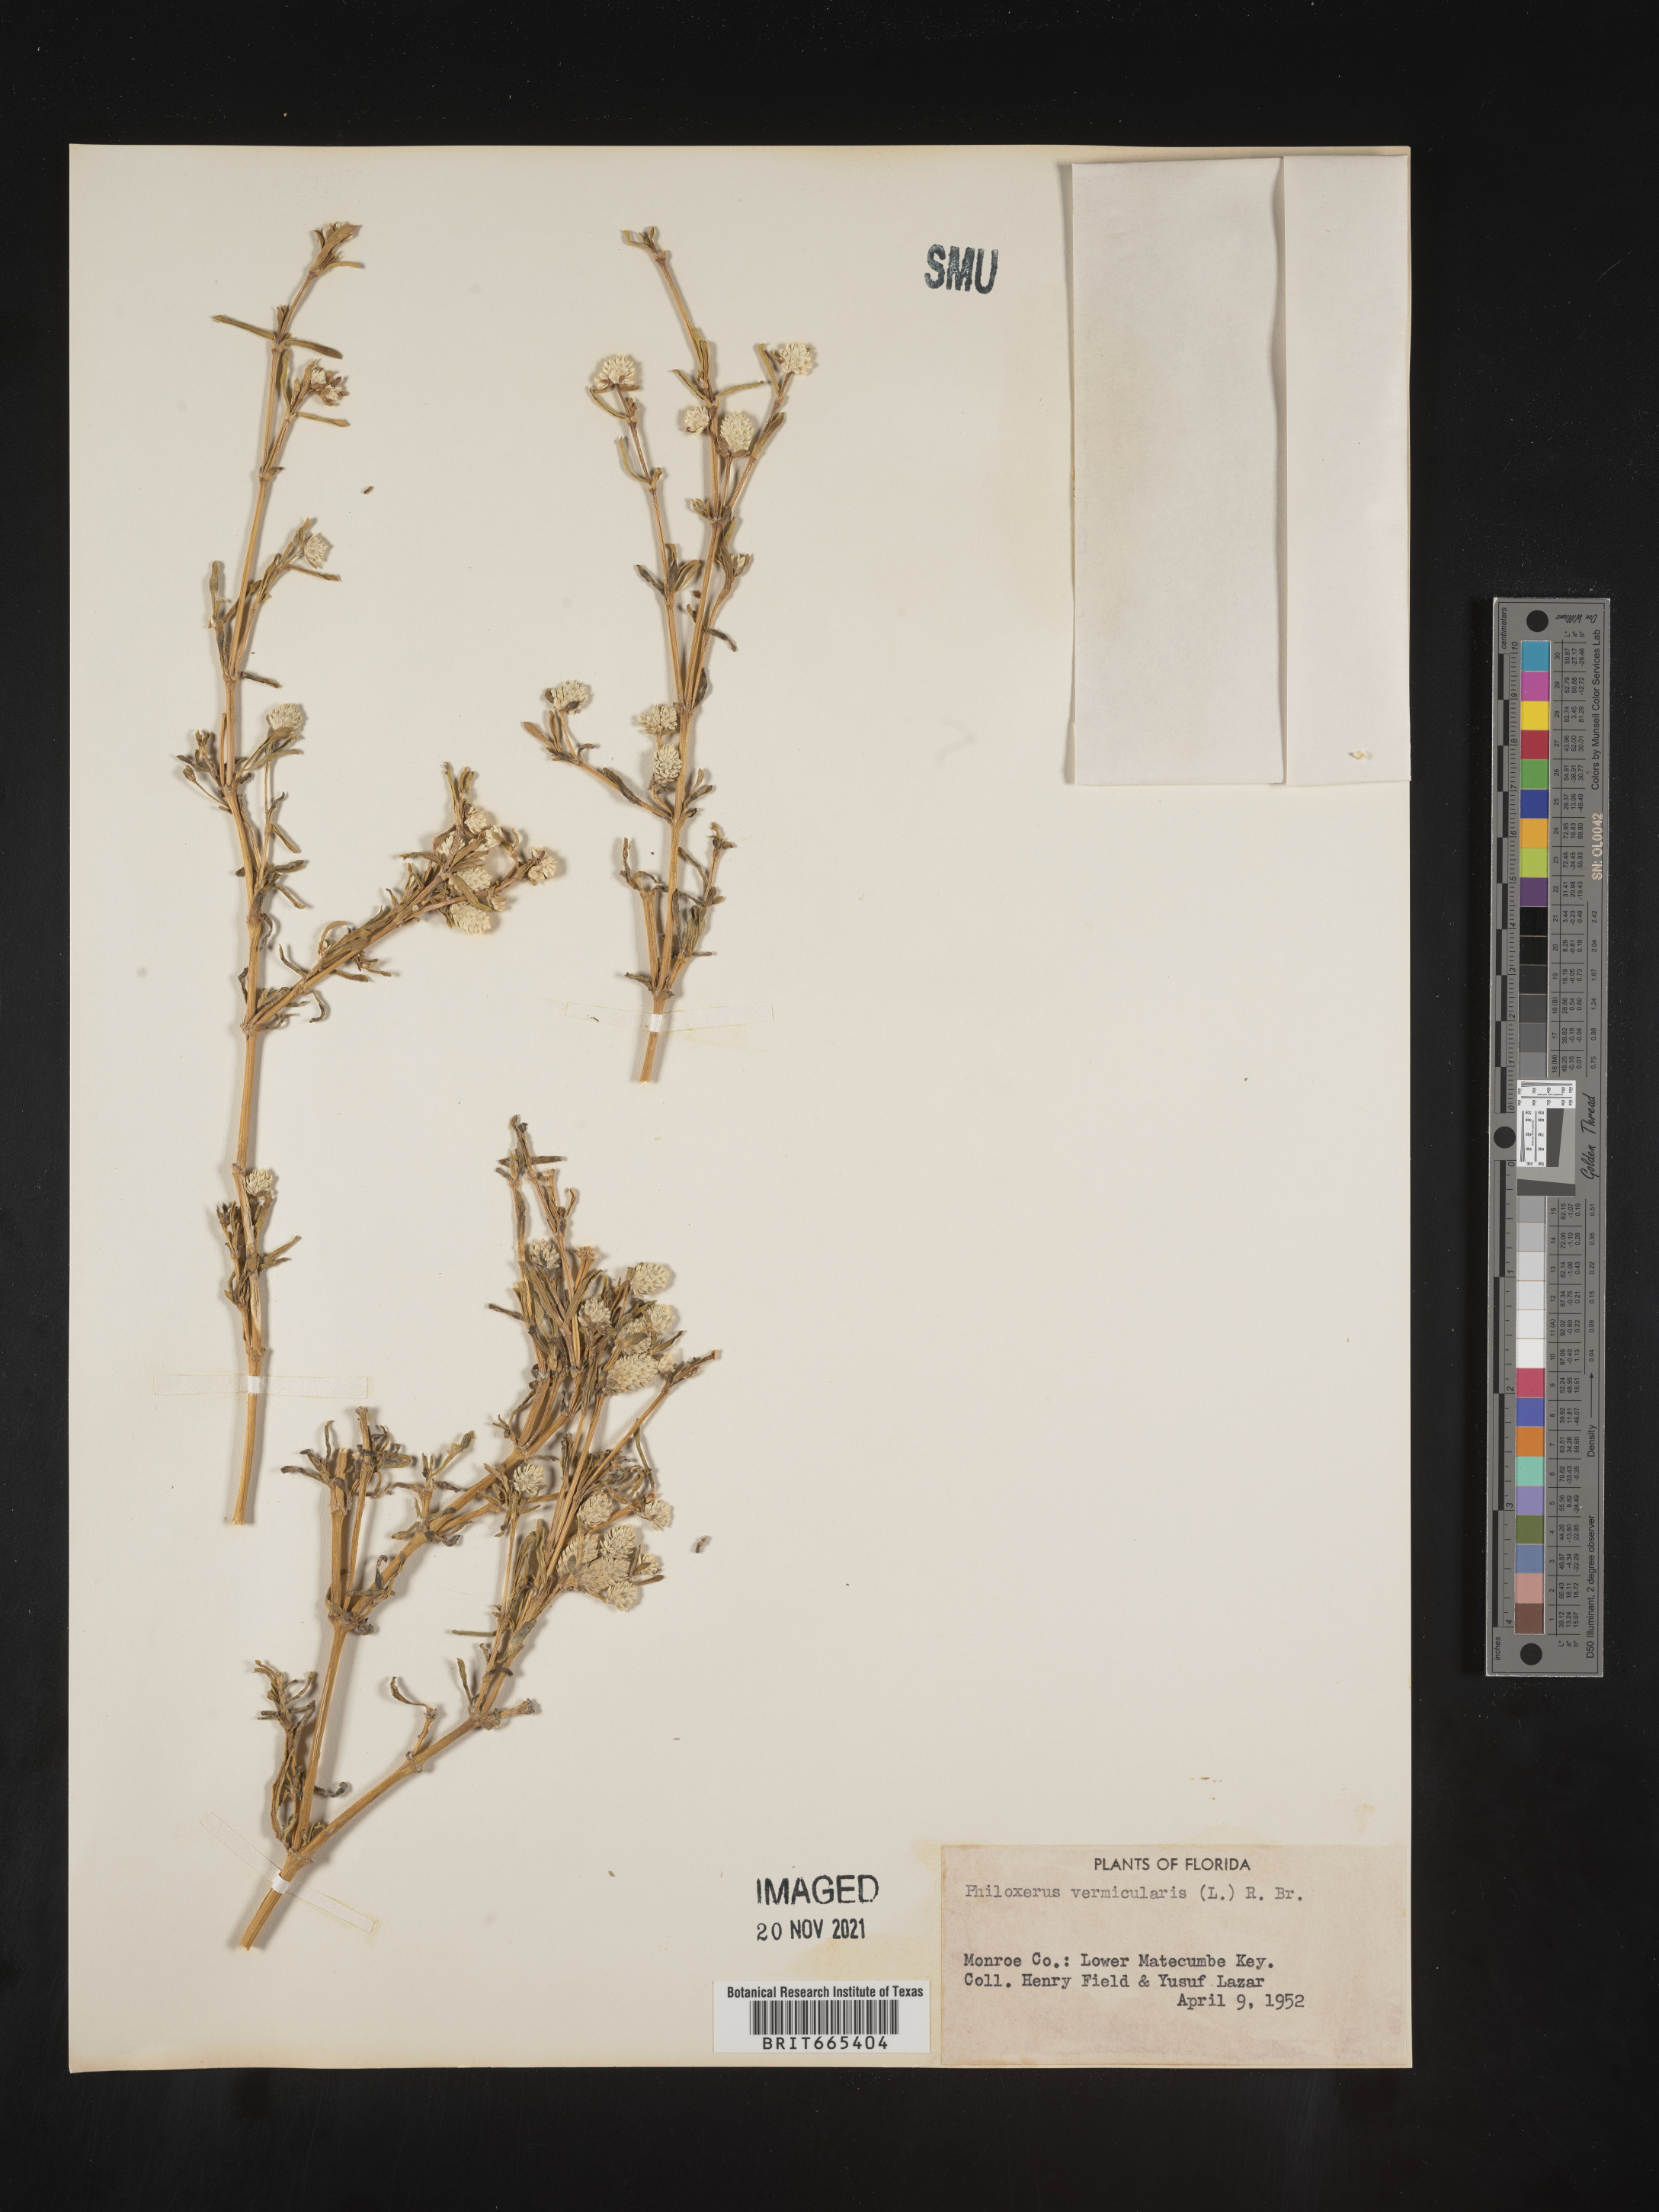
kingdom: Plantae
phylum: Tracheophyta
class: Magnoliopsida
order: Caryophyllales
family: Amaranthaceae
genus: Gomphrena
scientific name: Gomphrena
